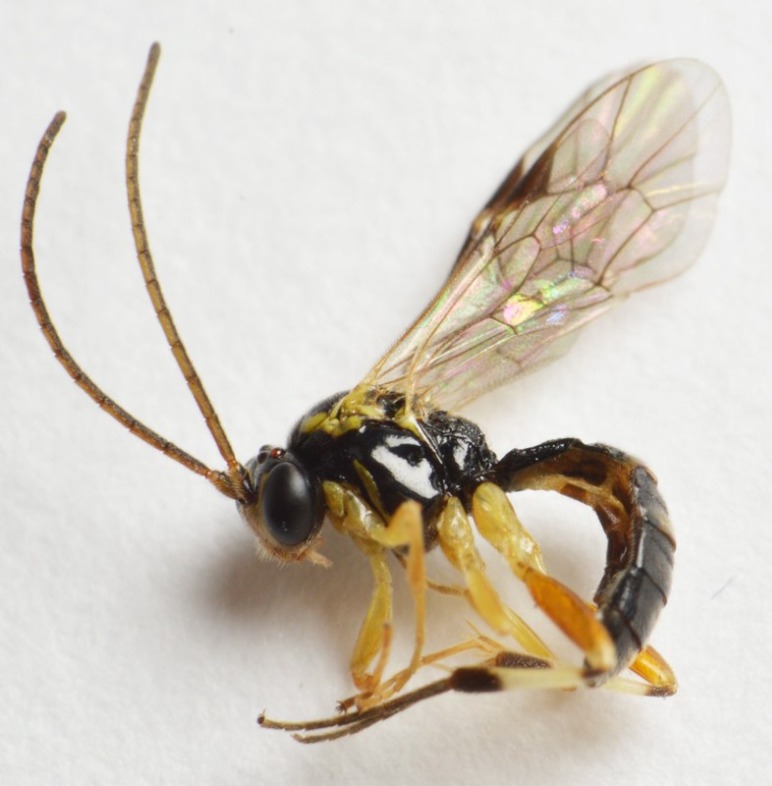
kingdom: Animalia
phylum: Arthropoda
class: Insecta
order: Hymenoptera
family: Ichneumonidae
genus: Diplazon
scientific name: Diplazon scutatorius
